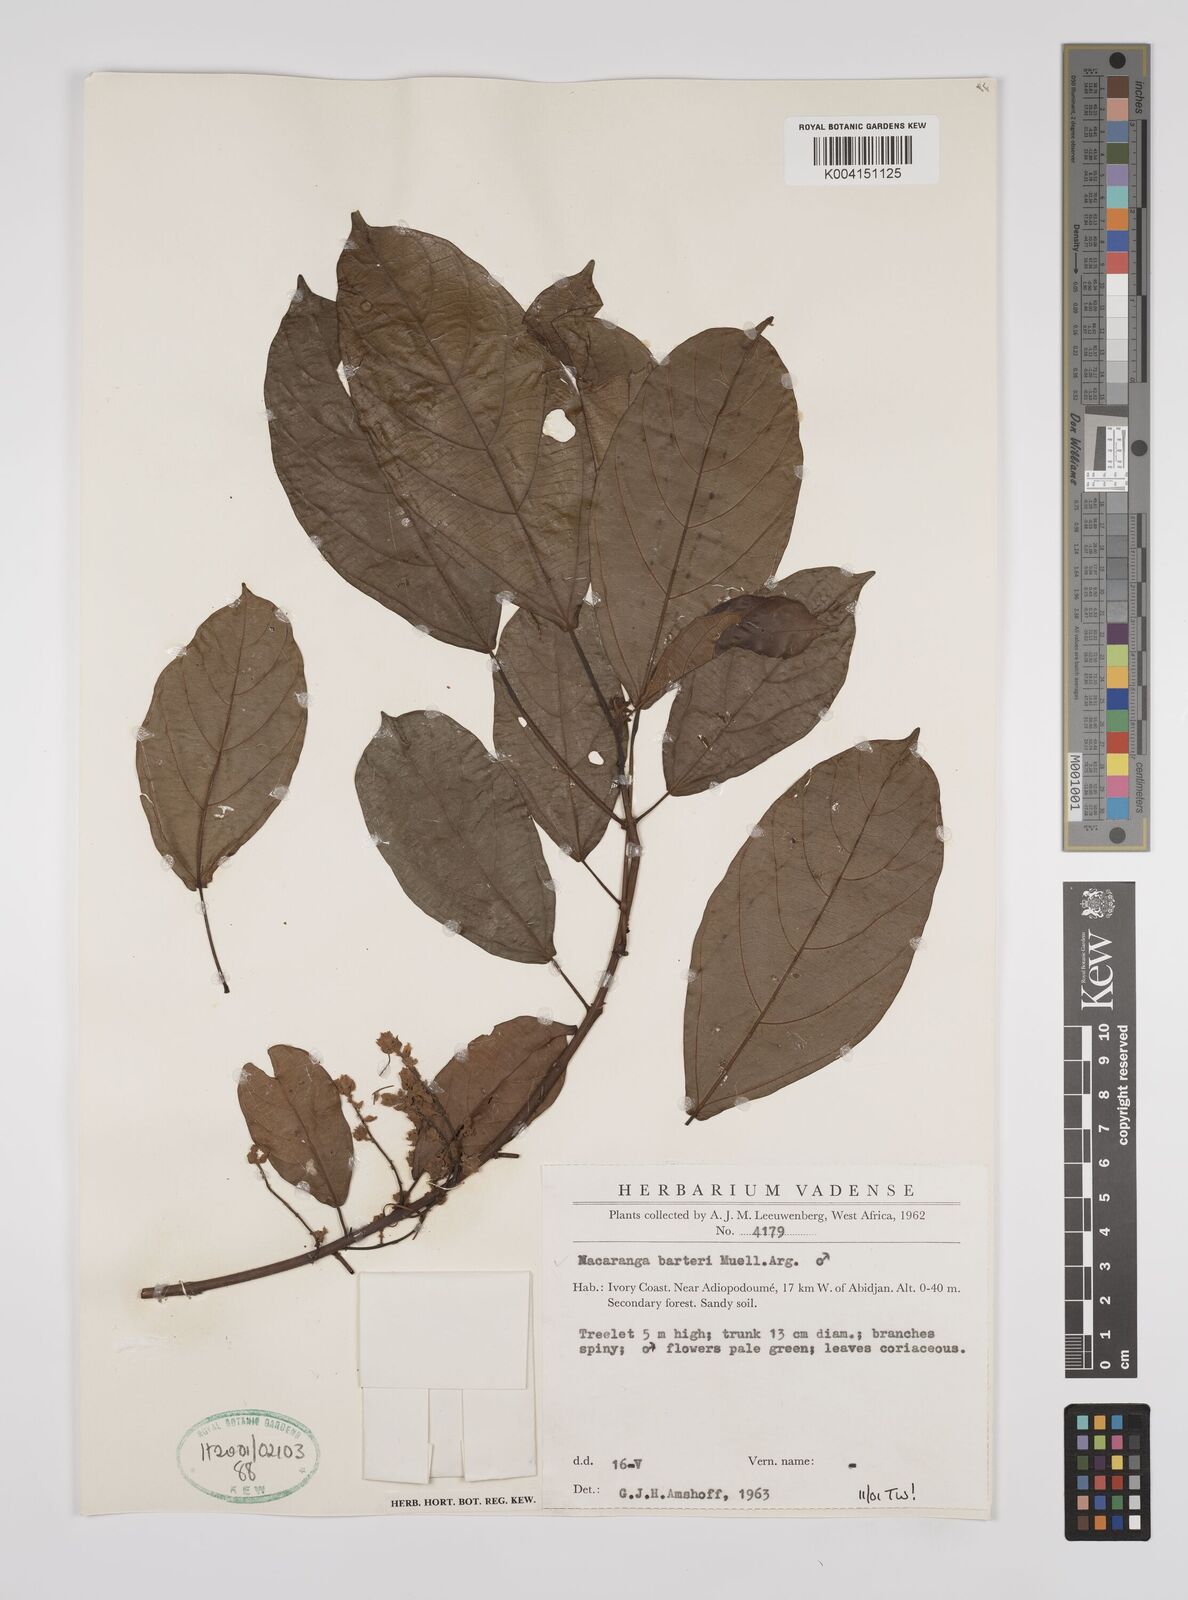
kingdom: Plantae
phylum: Tracheophyta
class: Magnoliopsida
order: Malpighiales
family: Euphorbiaceae
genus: Macaranga
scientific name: Macaranga barteri
